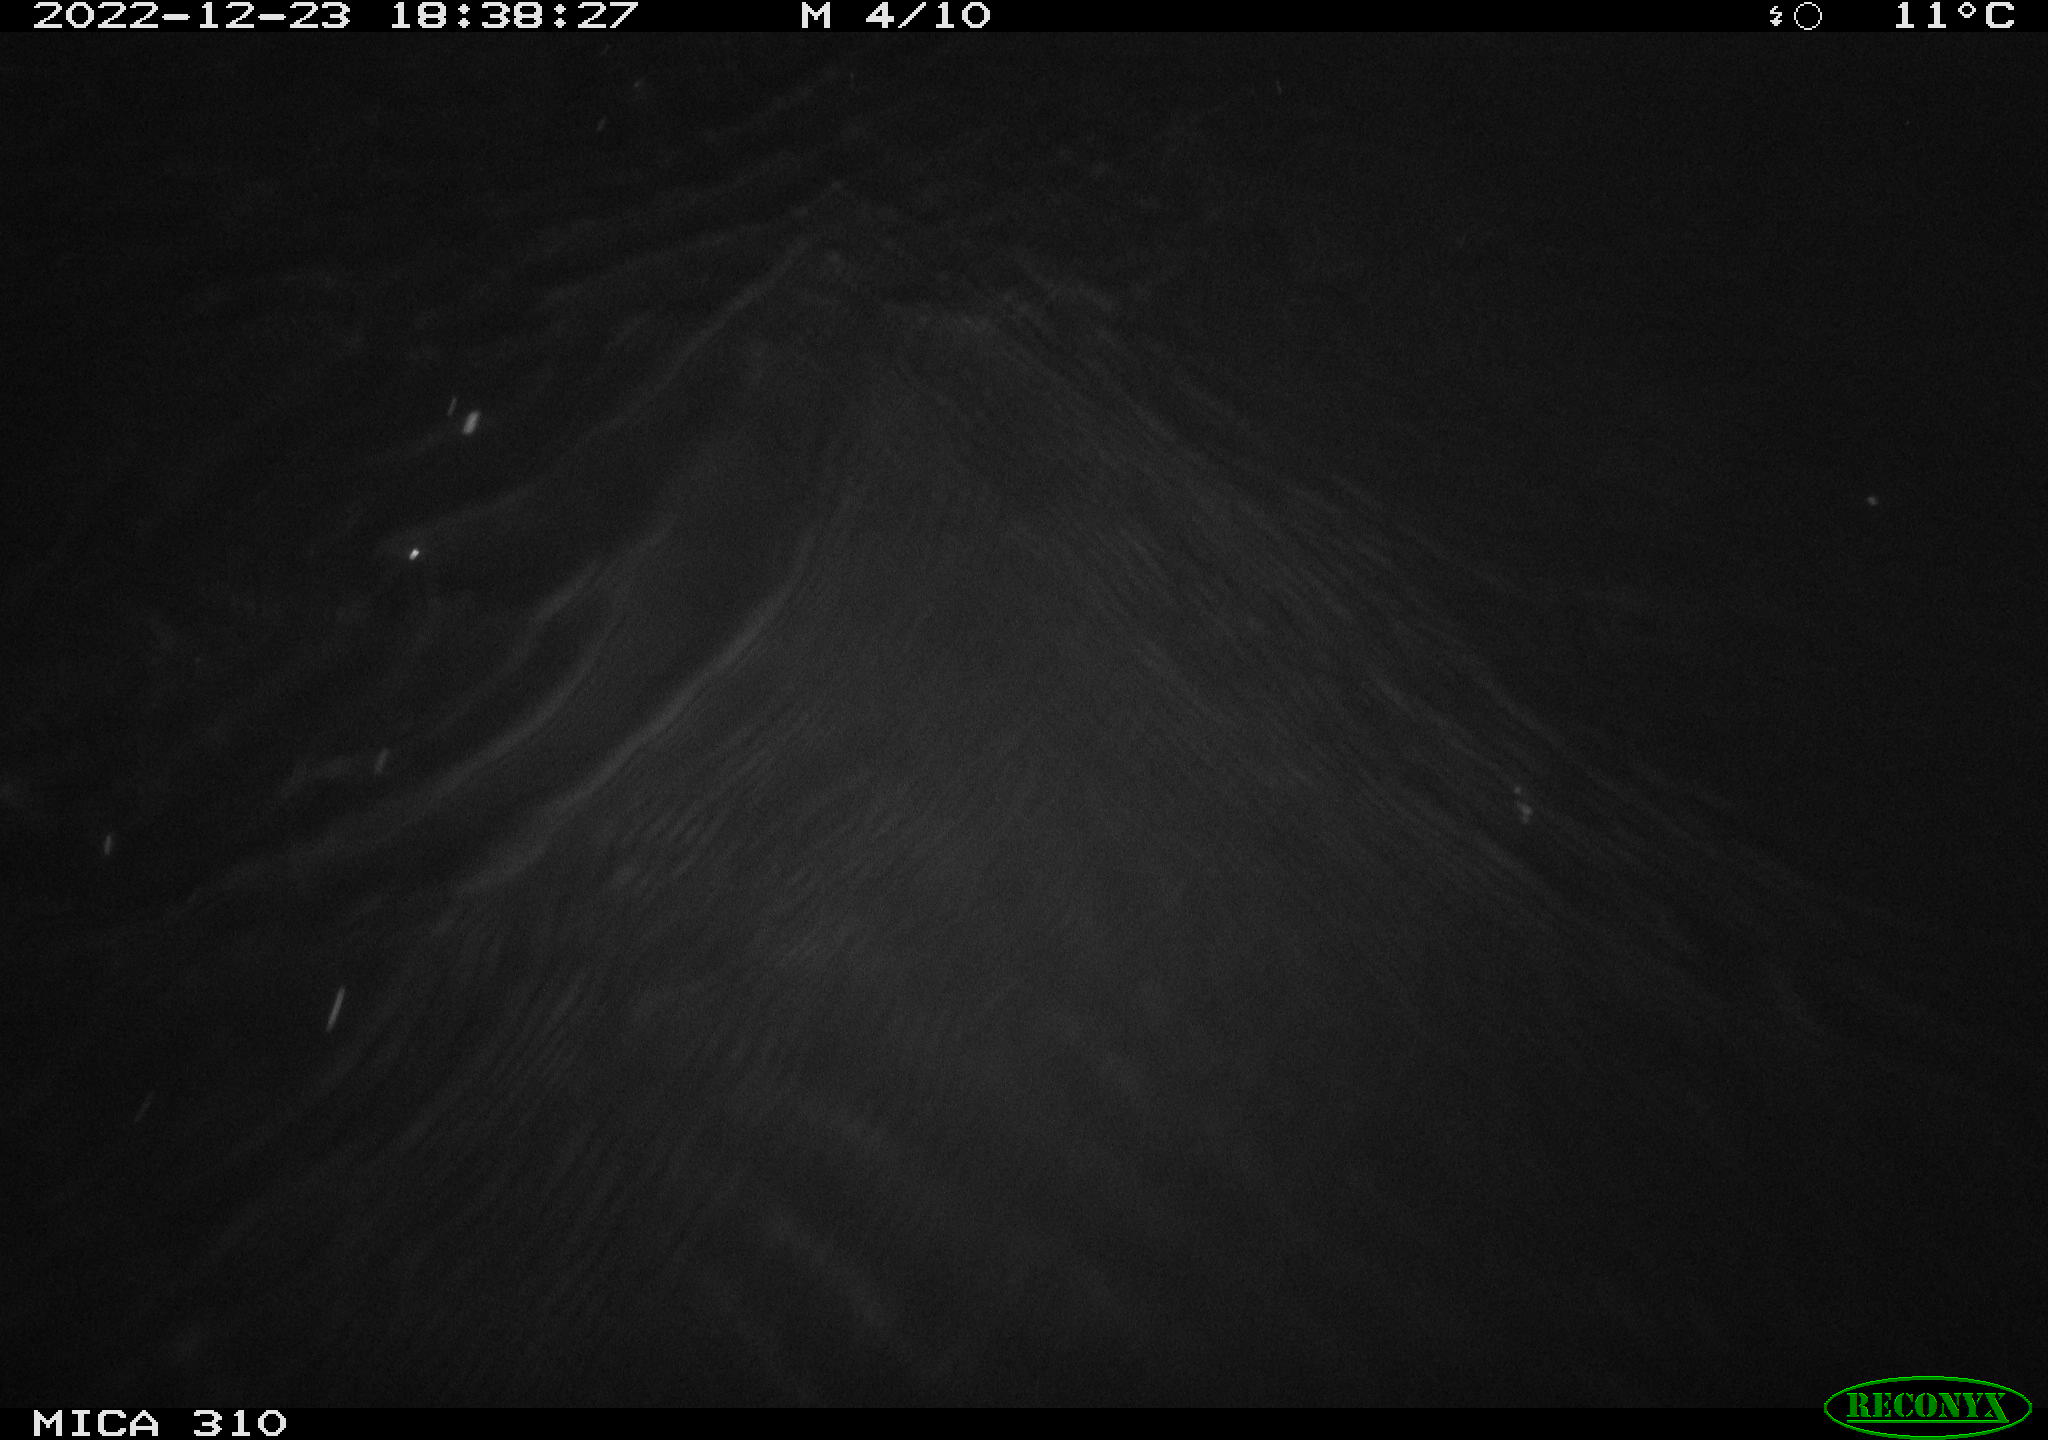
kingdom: Animalia
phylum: Chordata
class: Mammalia
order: Rodentia
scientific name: Rodentia
